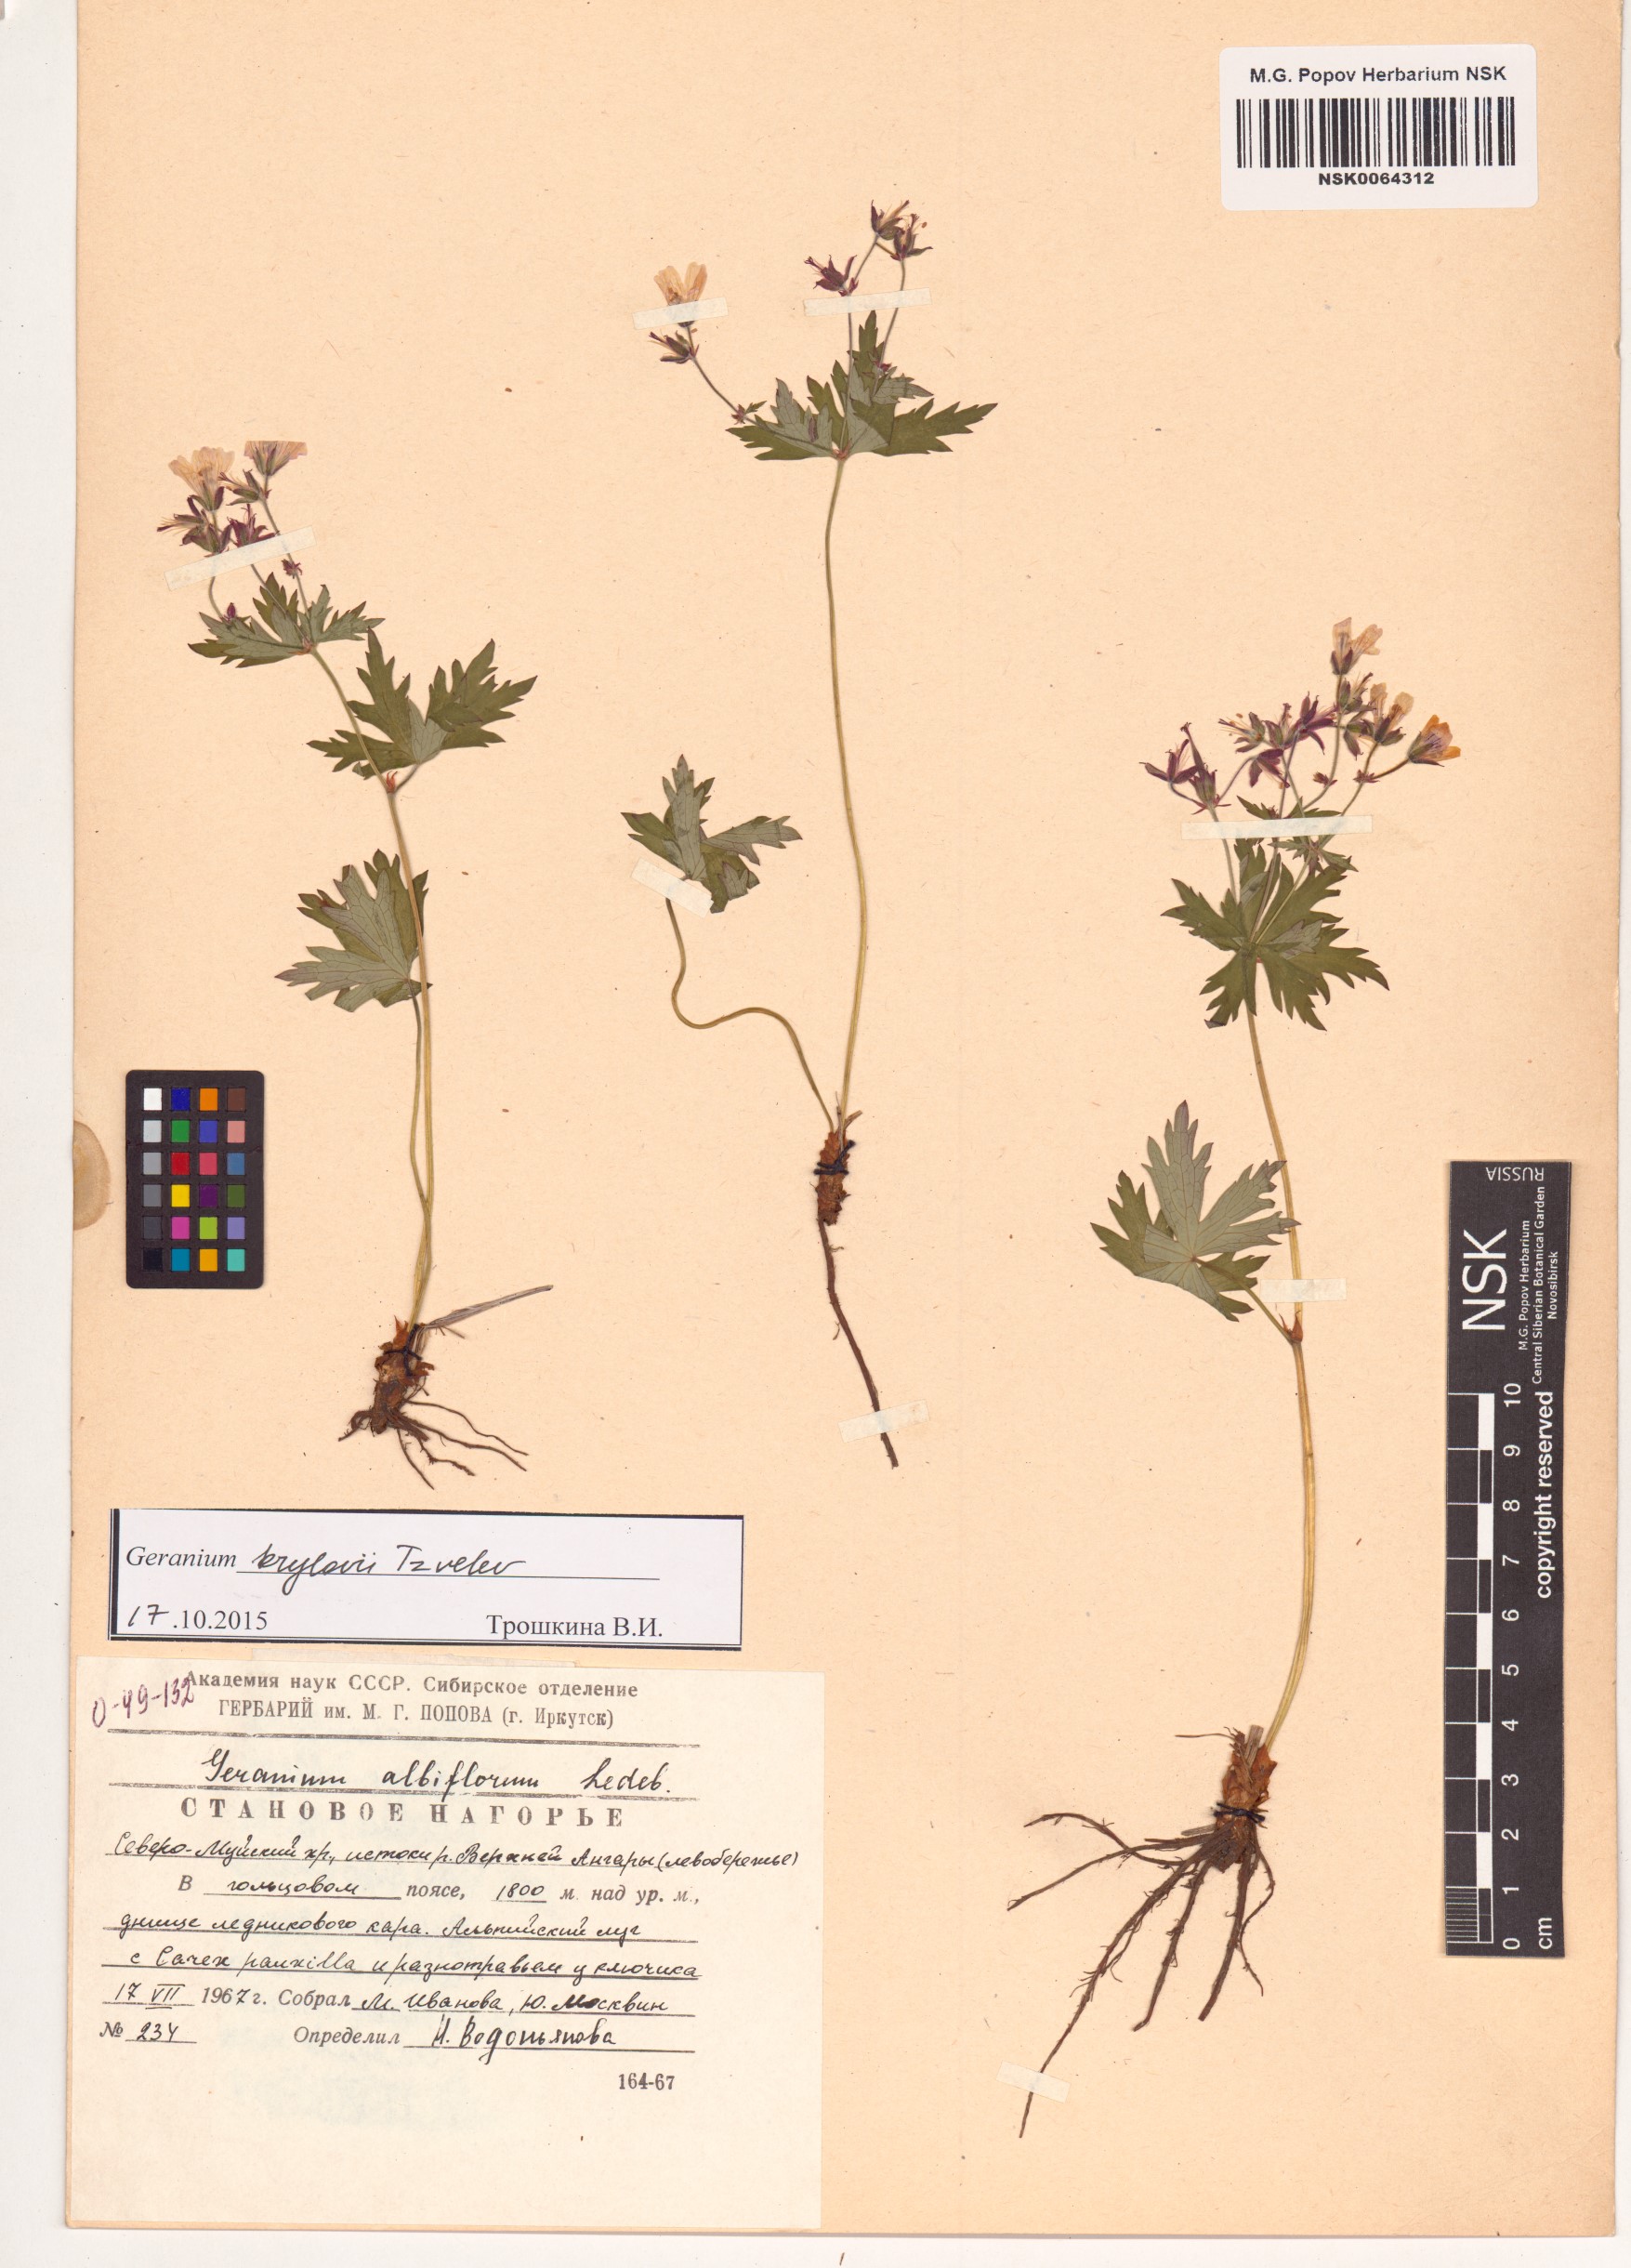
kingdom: Plantae
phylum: Tracheophyta
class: Magnoliopsida
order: Geraniales
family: Geraniaceae
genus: Geranium
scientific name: Geranium sylvaticum
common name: Wood crane's-bill
